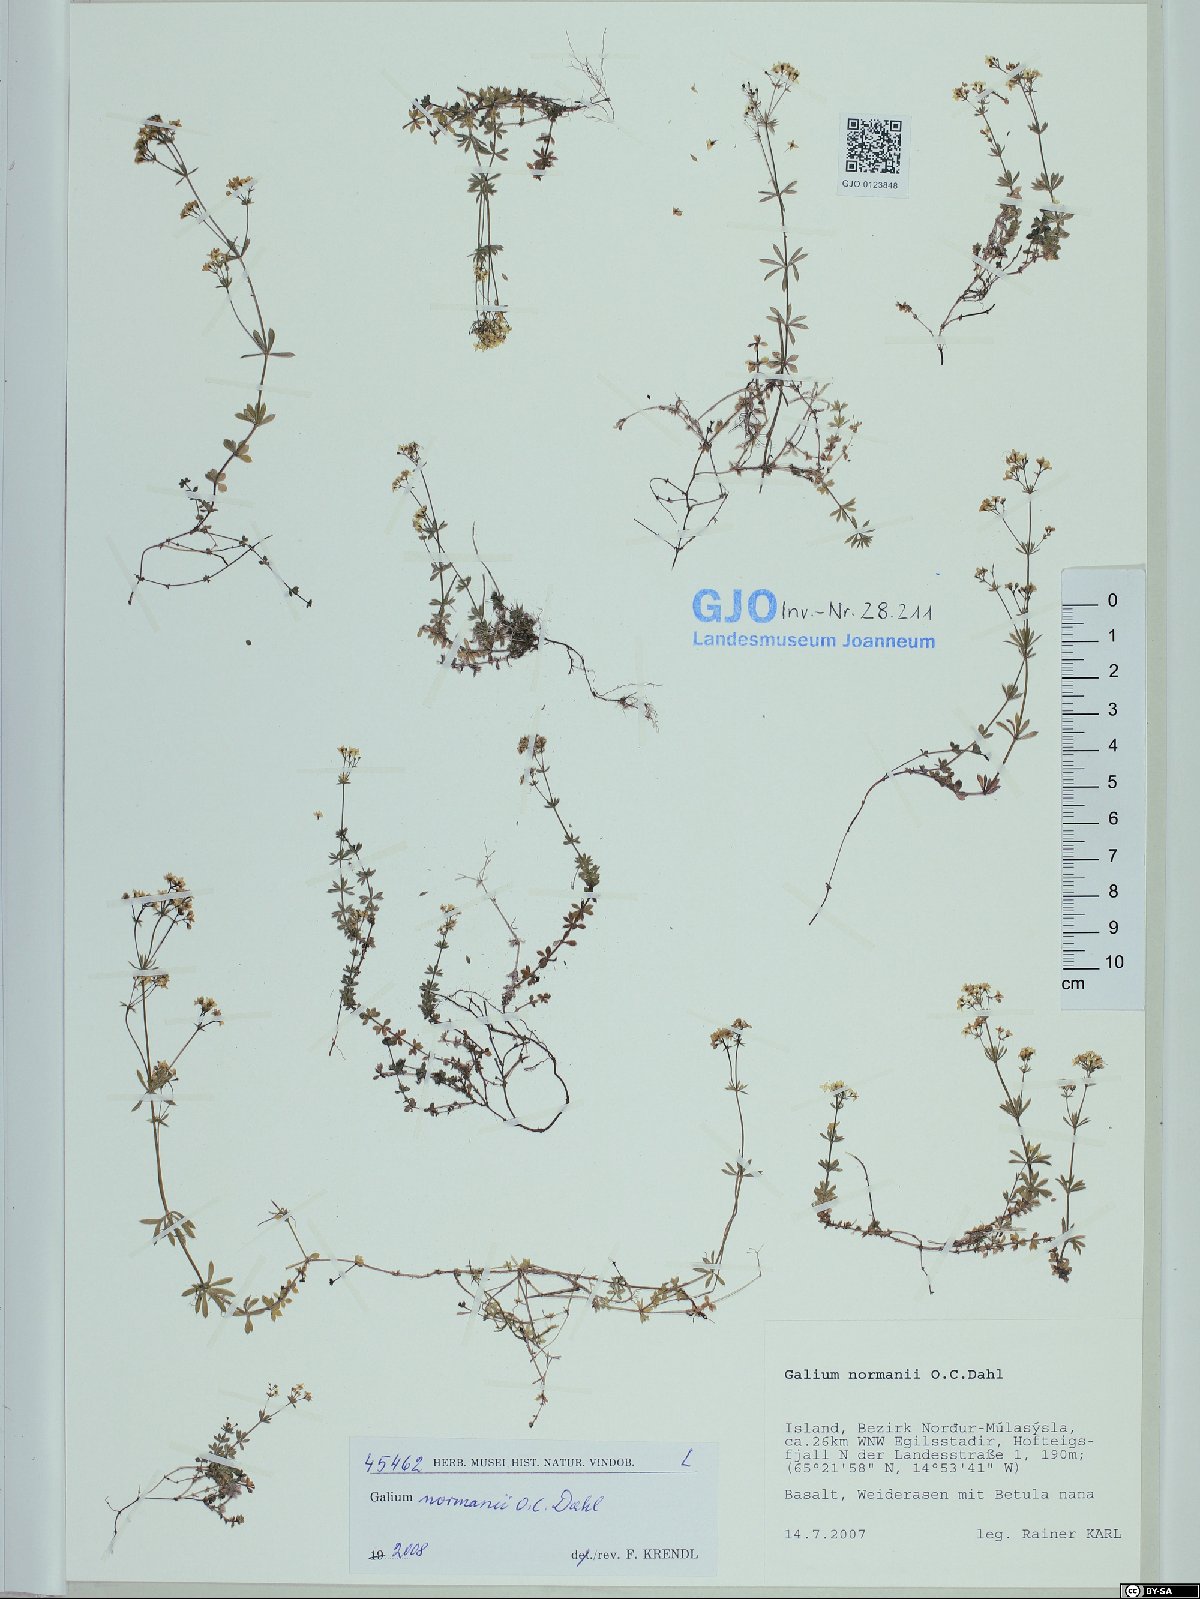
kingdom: Plantae
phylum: Tracheophyta
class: Magnoliopsida
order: Gentianales
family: Rubiaceae
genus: Galium
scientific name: Galium normanii
